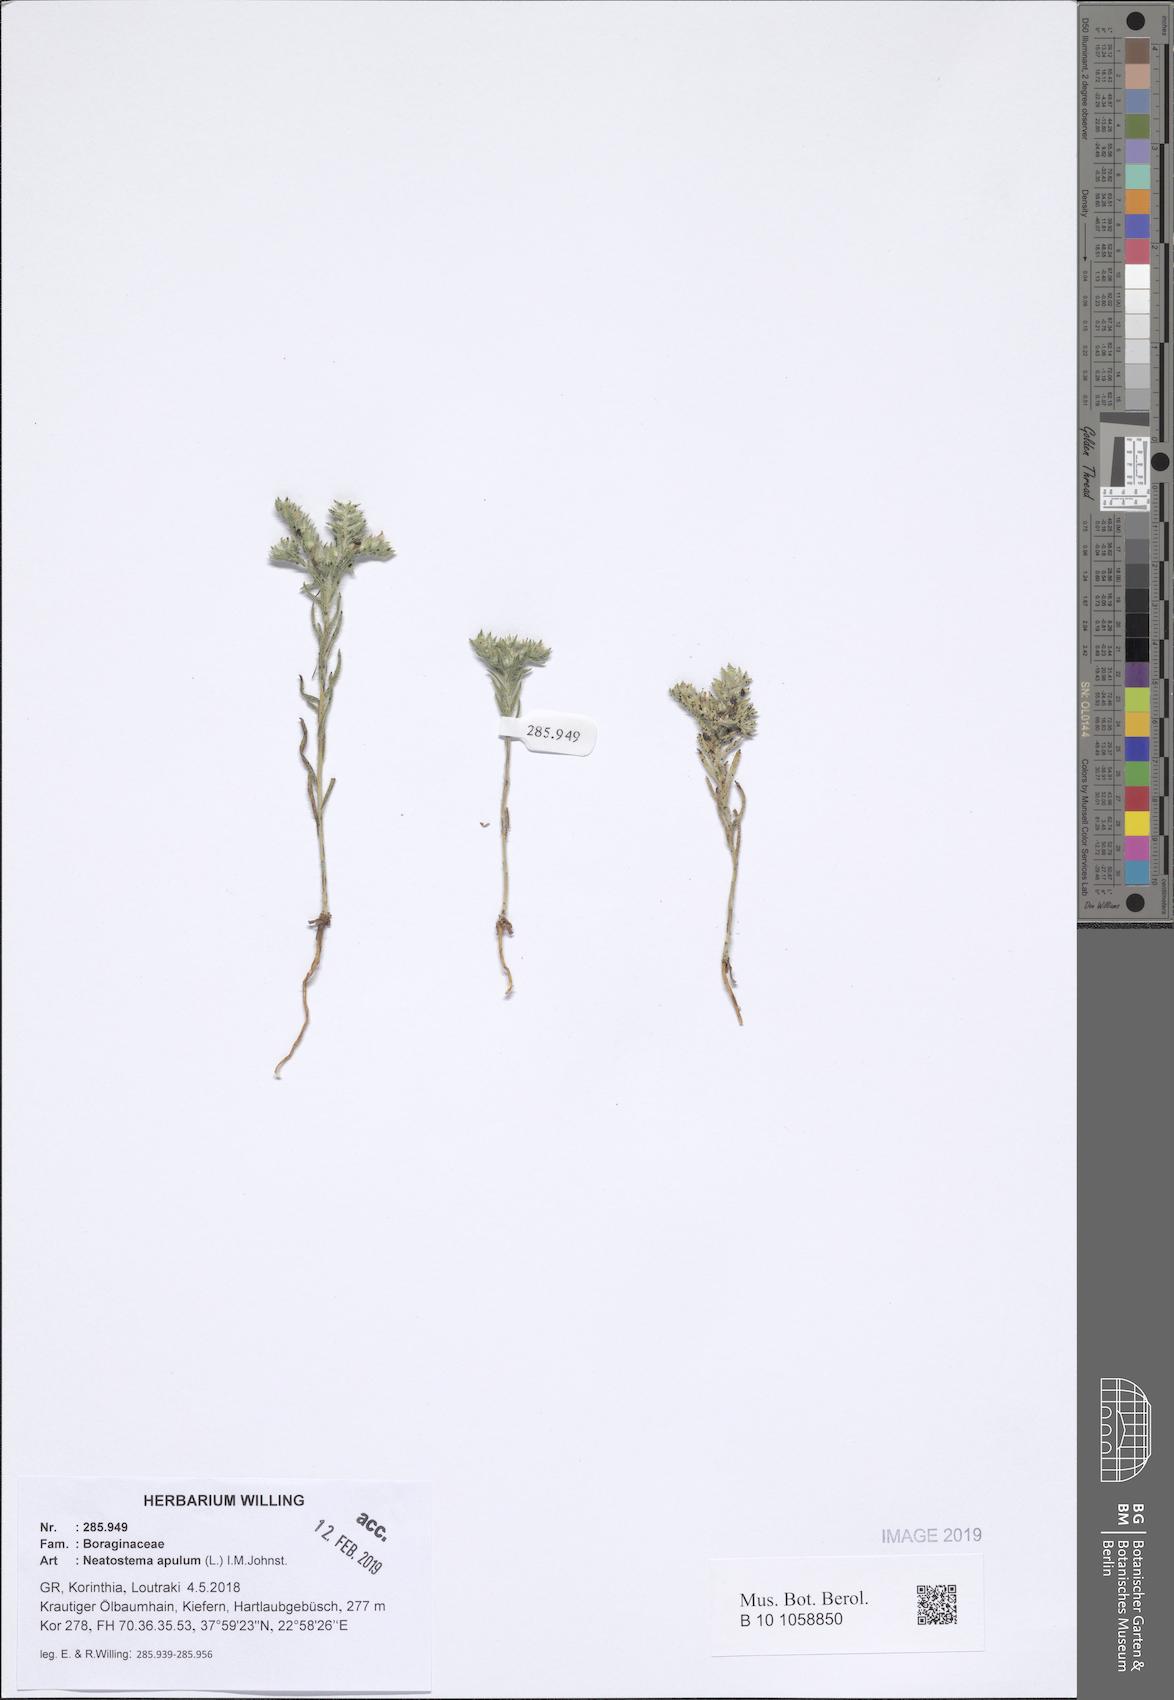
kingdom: Plantae
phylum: Tracheophyta
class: Magnoliopsida
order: Boraginales
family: Boraginaceae
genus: Neatostema
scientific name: Neatostema apulum
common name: Hairy sheepweed
